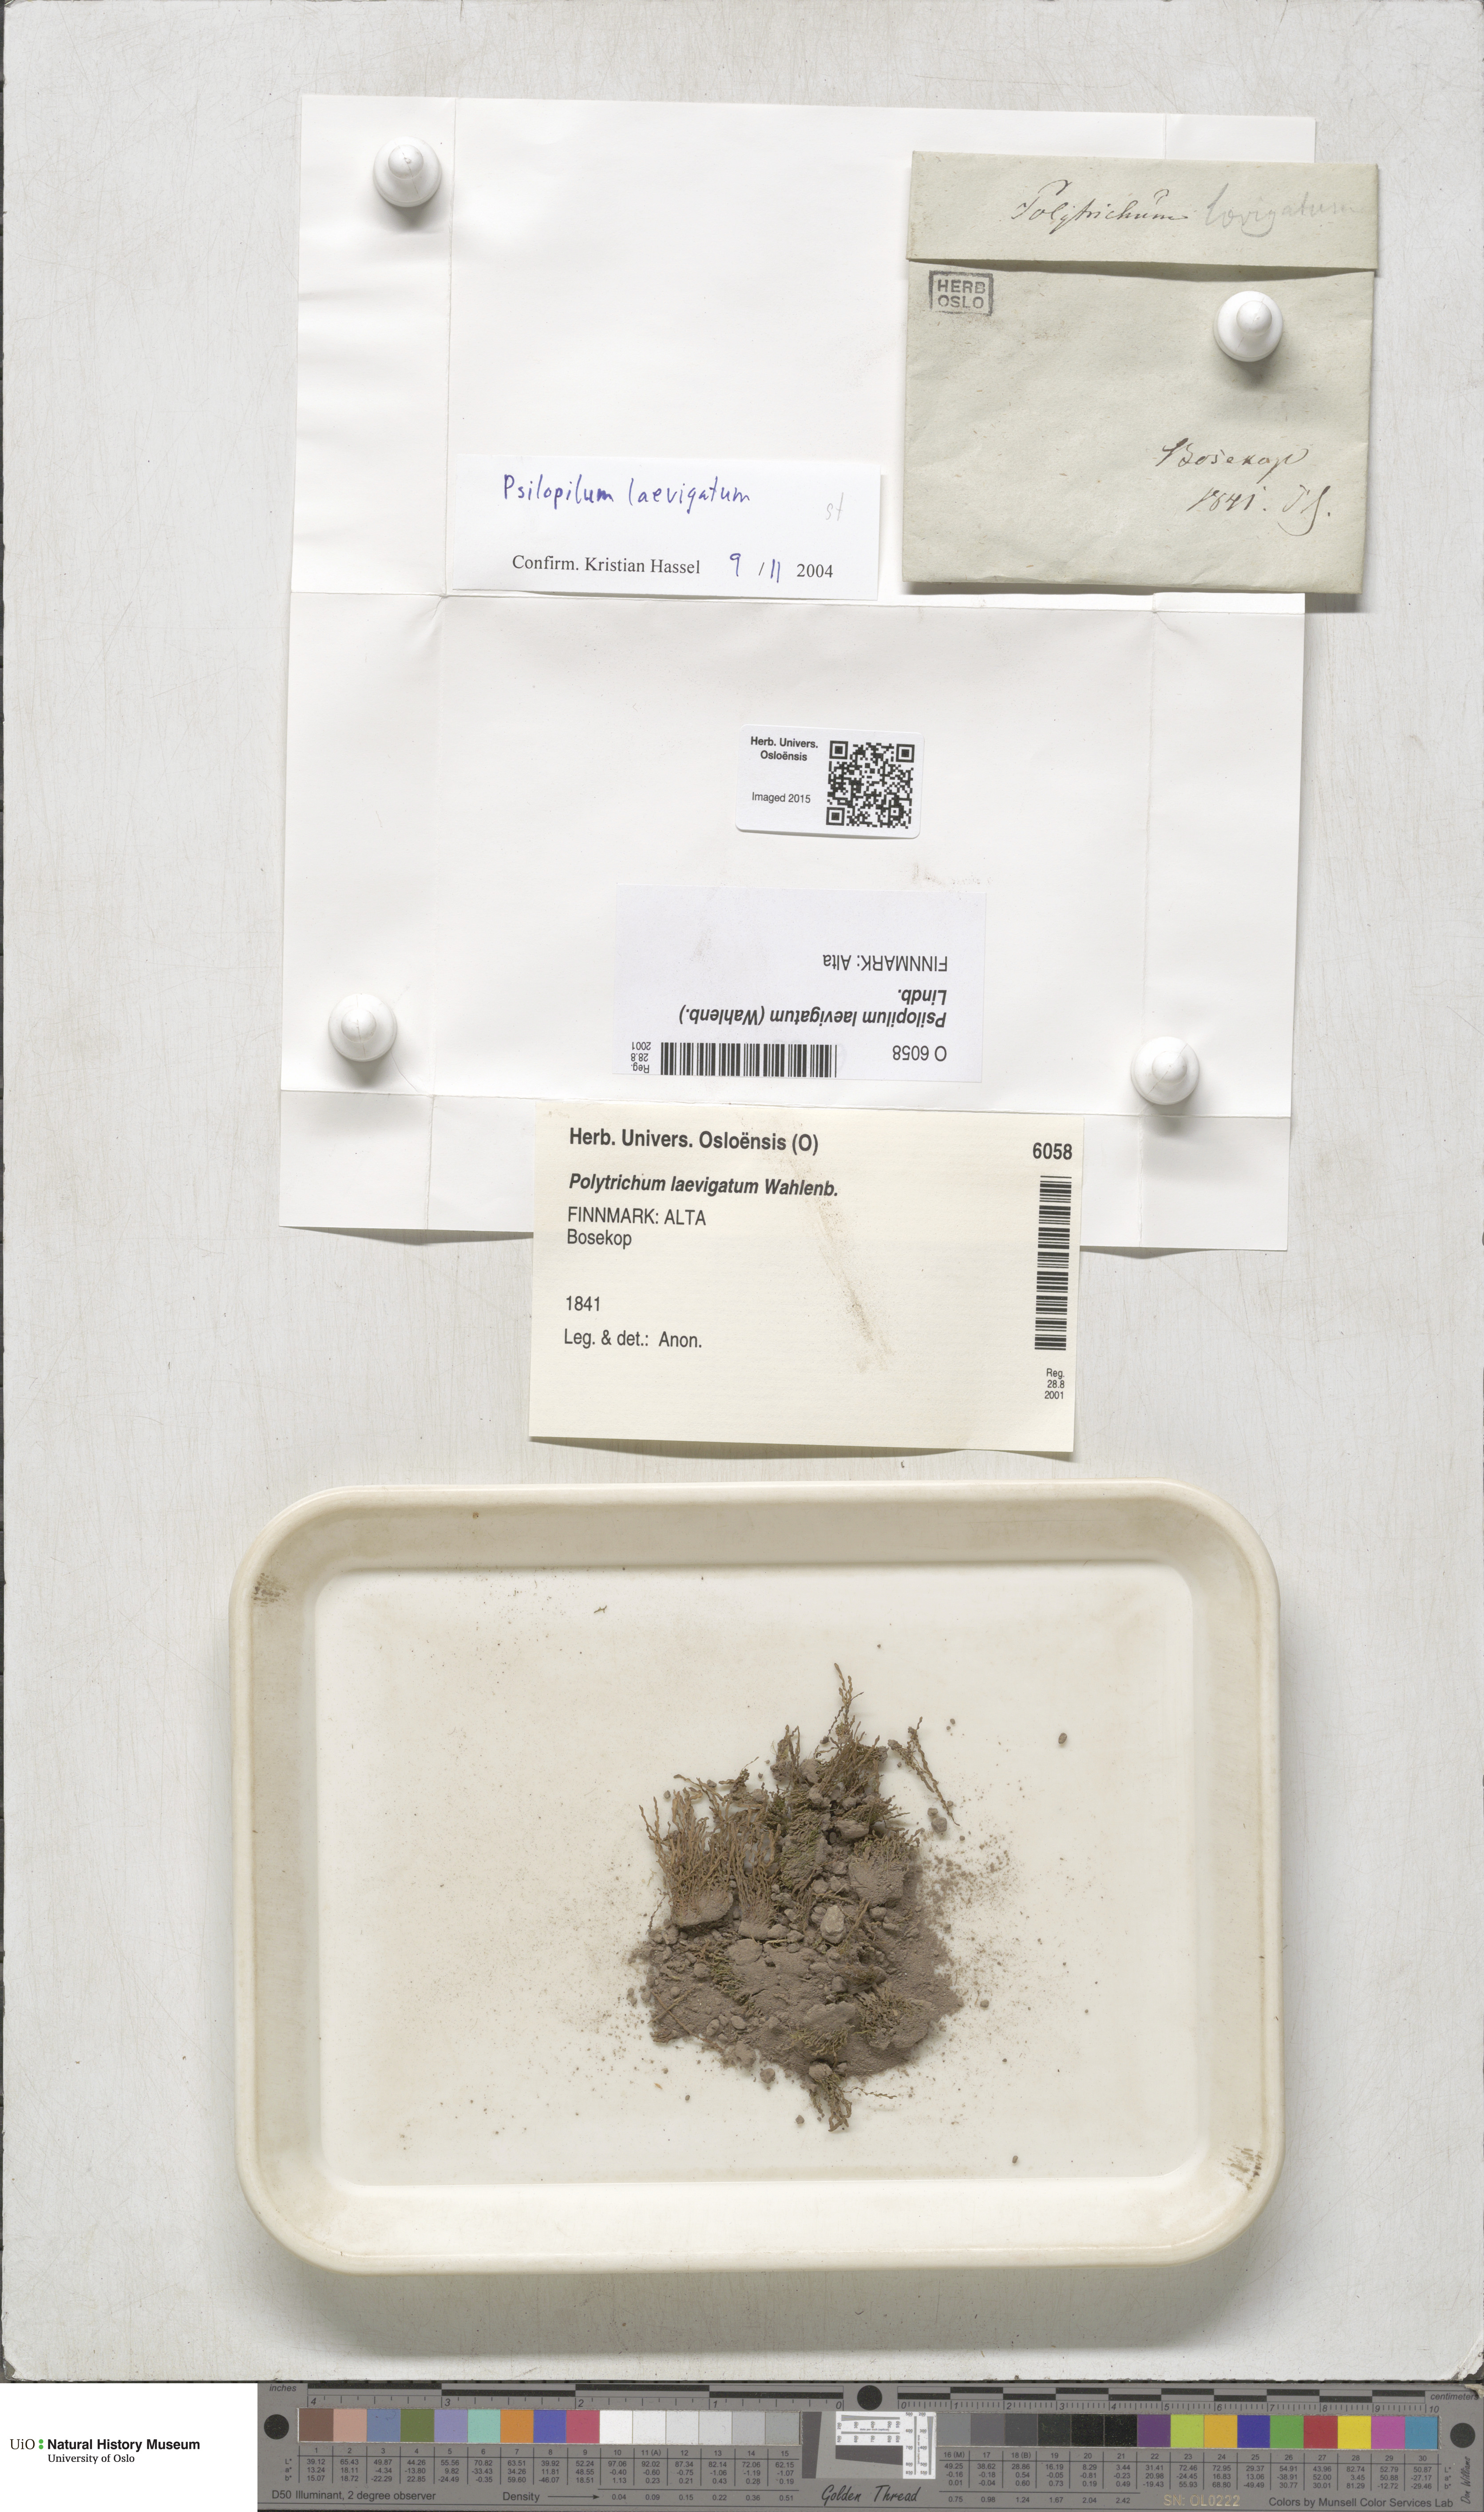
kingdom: Plantae
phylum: Bryophyta
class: Polytrichopsida
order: Polytrichales
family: Polytrichaceae
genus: Psilopilum
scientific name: Psilopilum laevigatum
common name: Large wolverine moss
